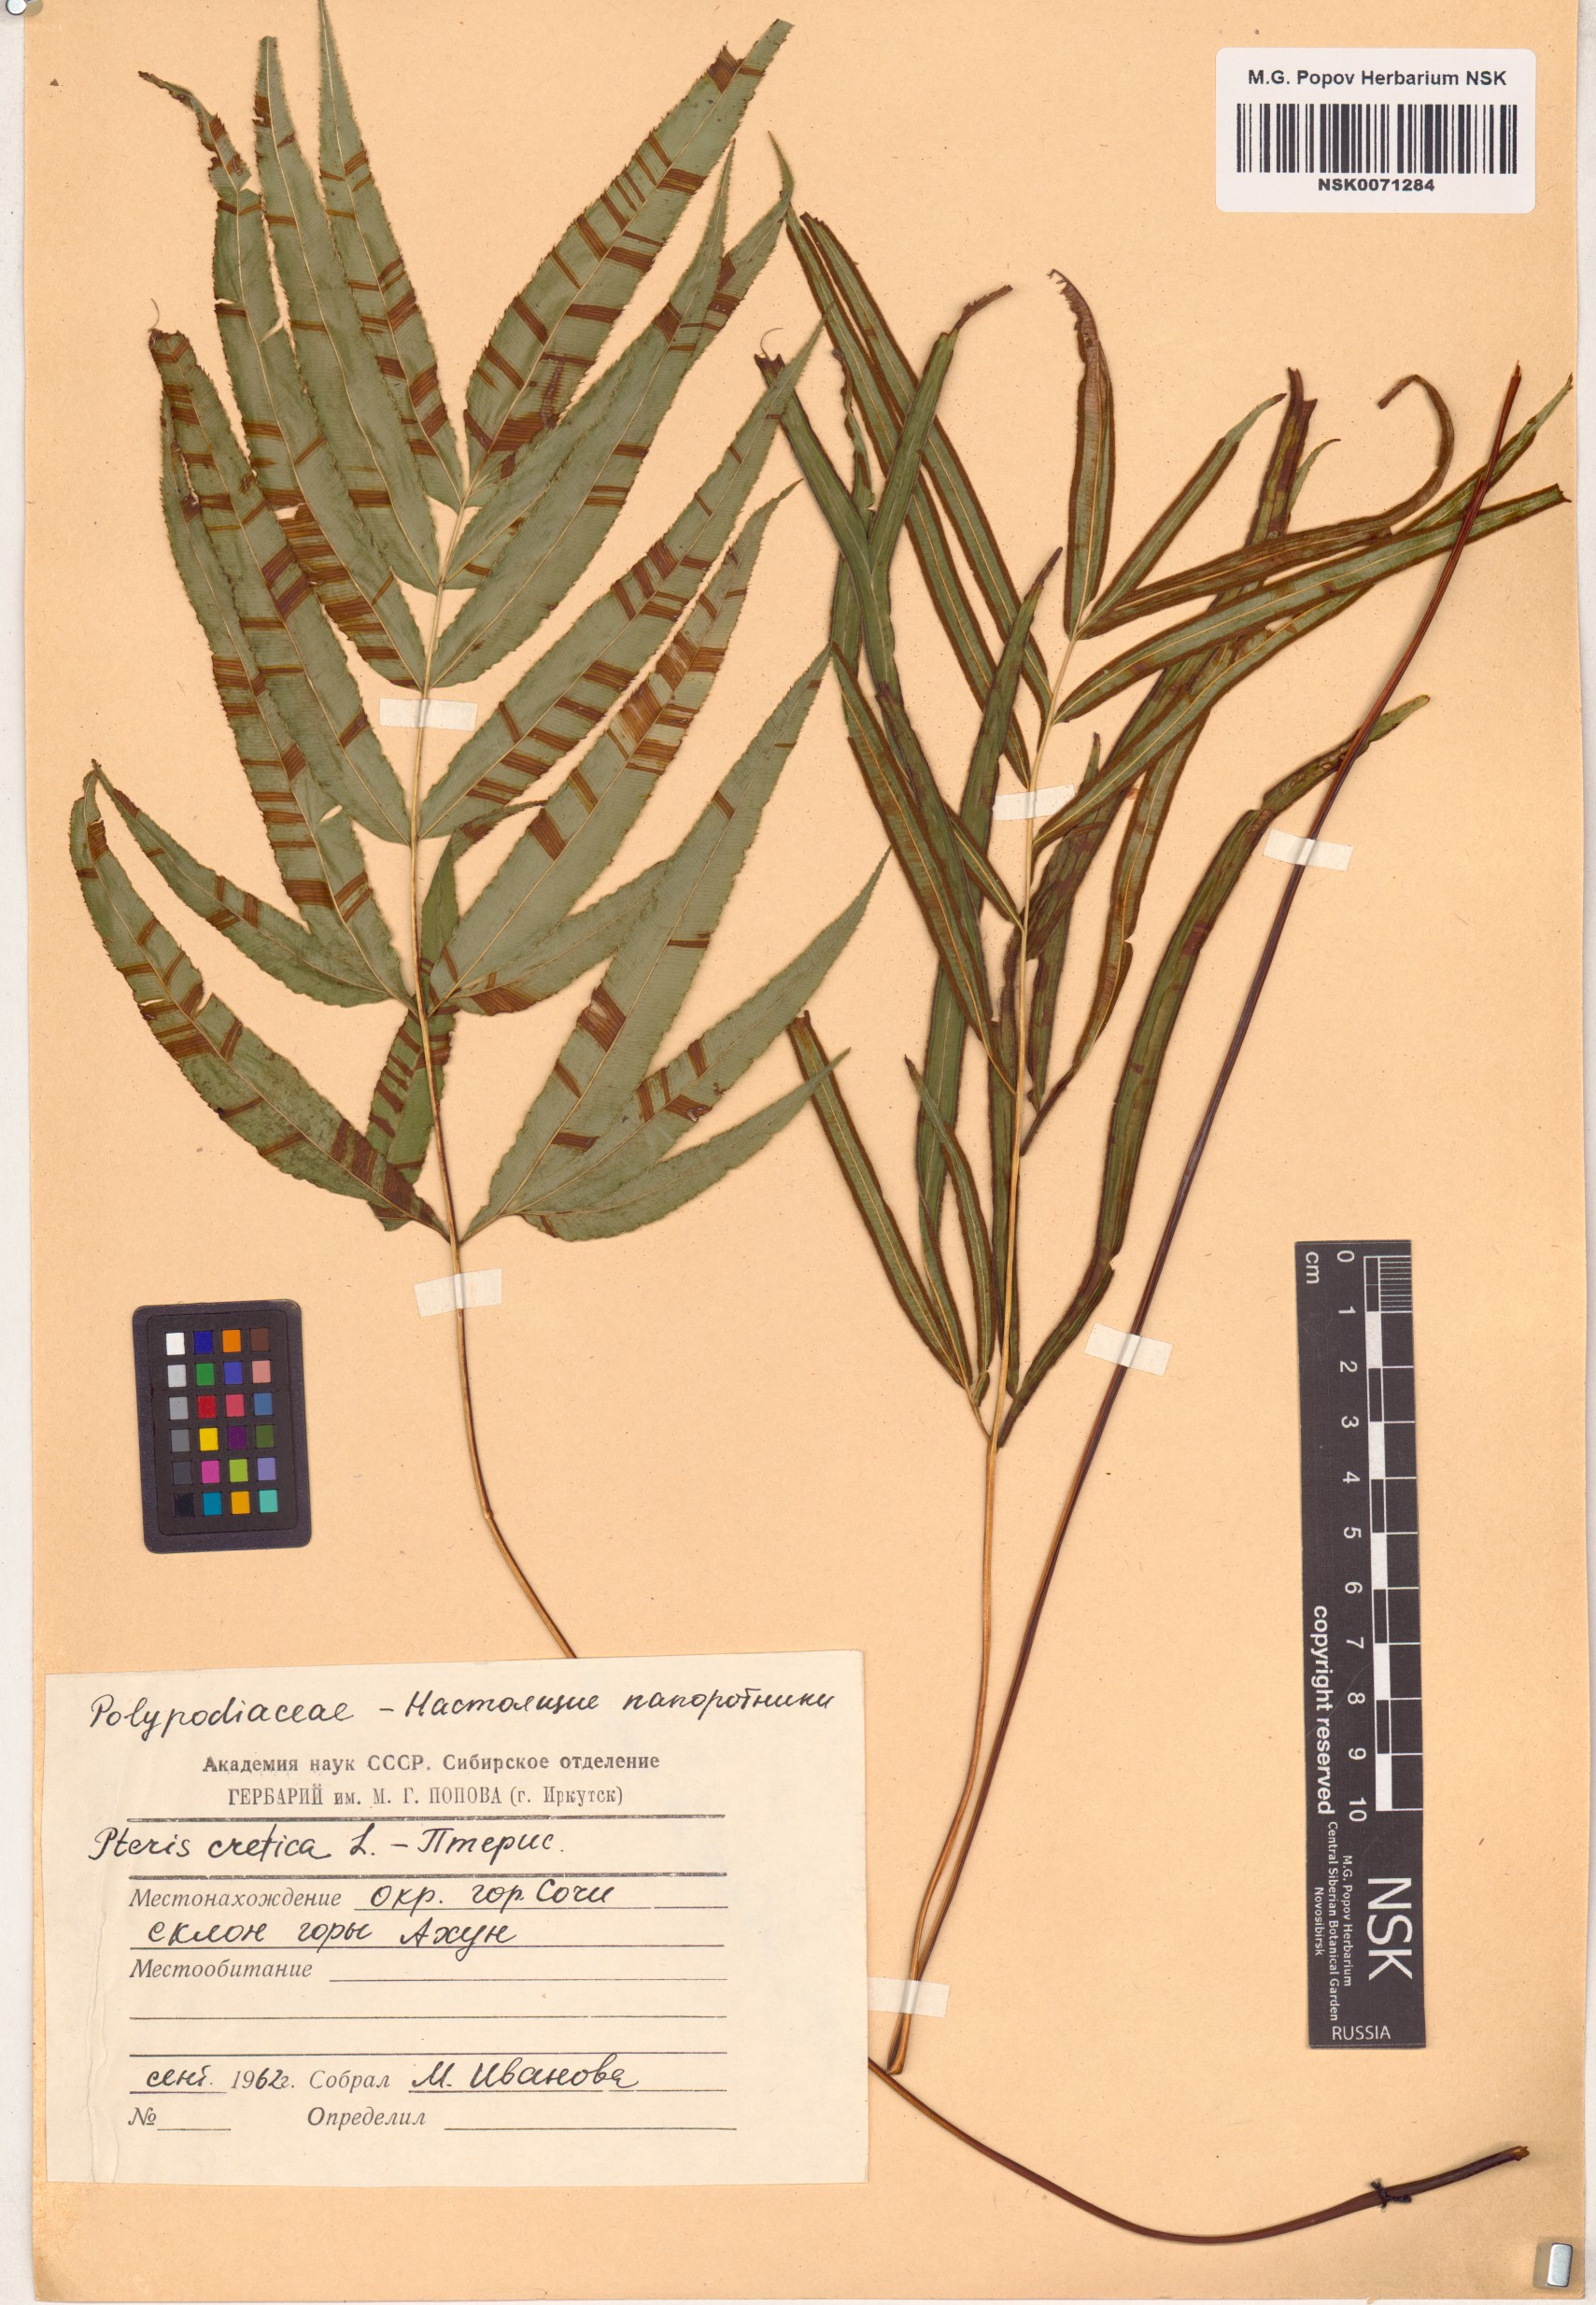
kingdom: Plantae
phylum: Tracheophyta
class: Polypodiopsida
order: Polypodiales
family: Pteridaceae
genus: Pteris
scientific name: Pteris cretica
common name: Ribbon fern
